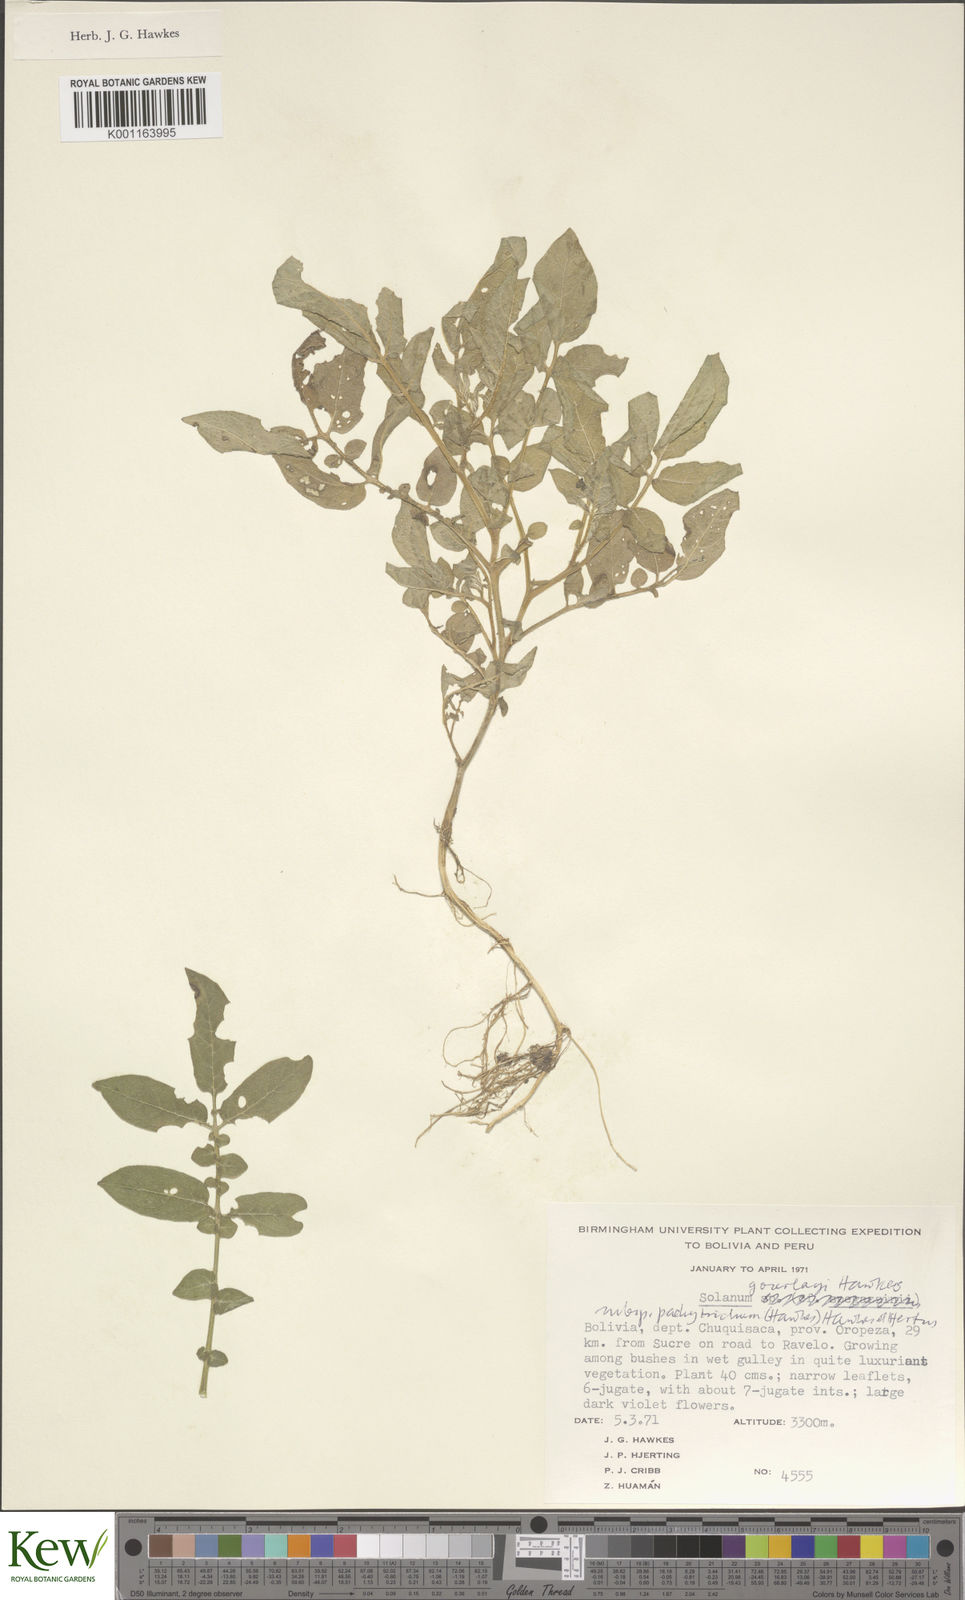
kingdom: Plantae
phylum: Tracheophyta
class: Magnoliopsida
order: Solanales
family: Solanaceae
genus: Solanum
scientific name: Solanum brevicaule
